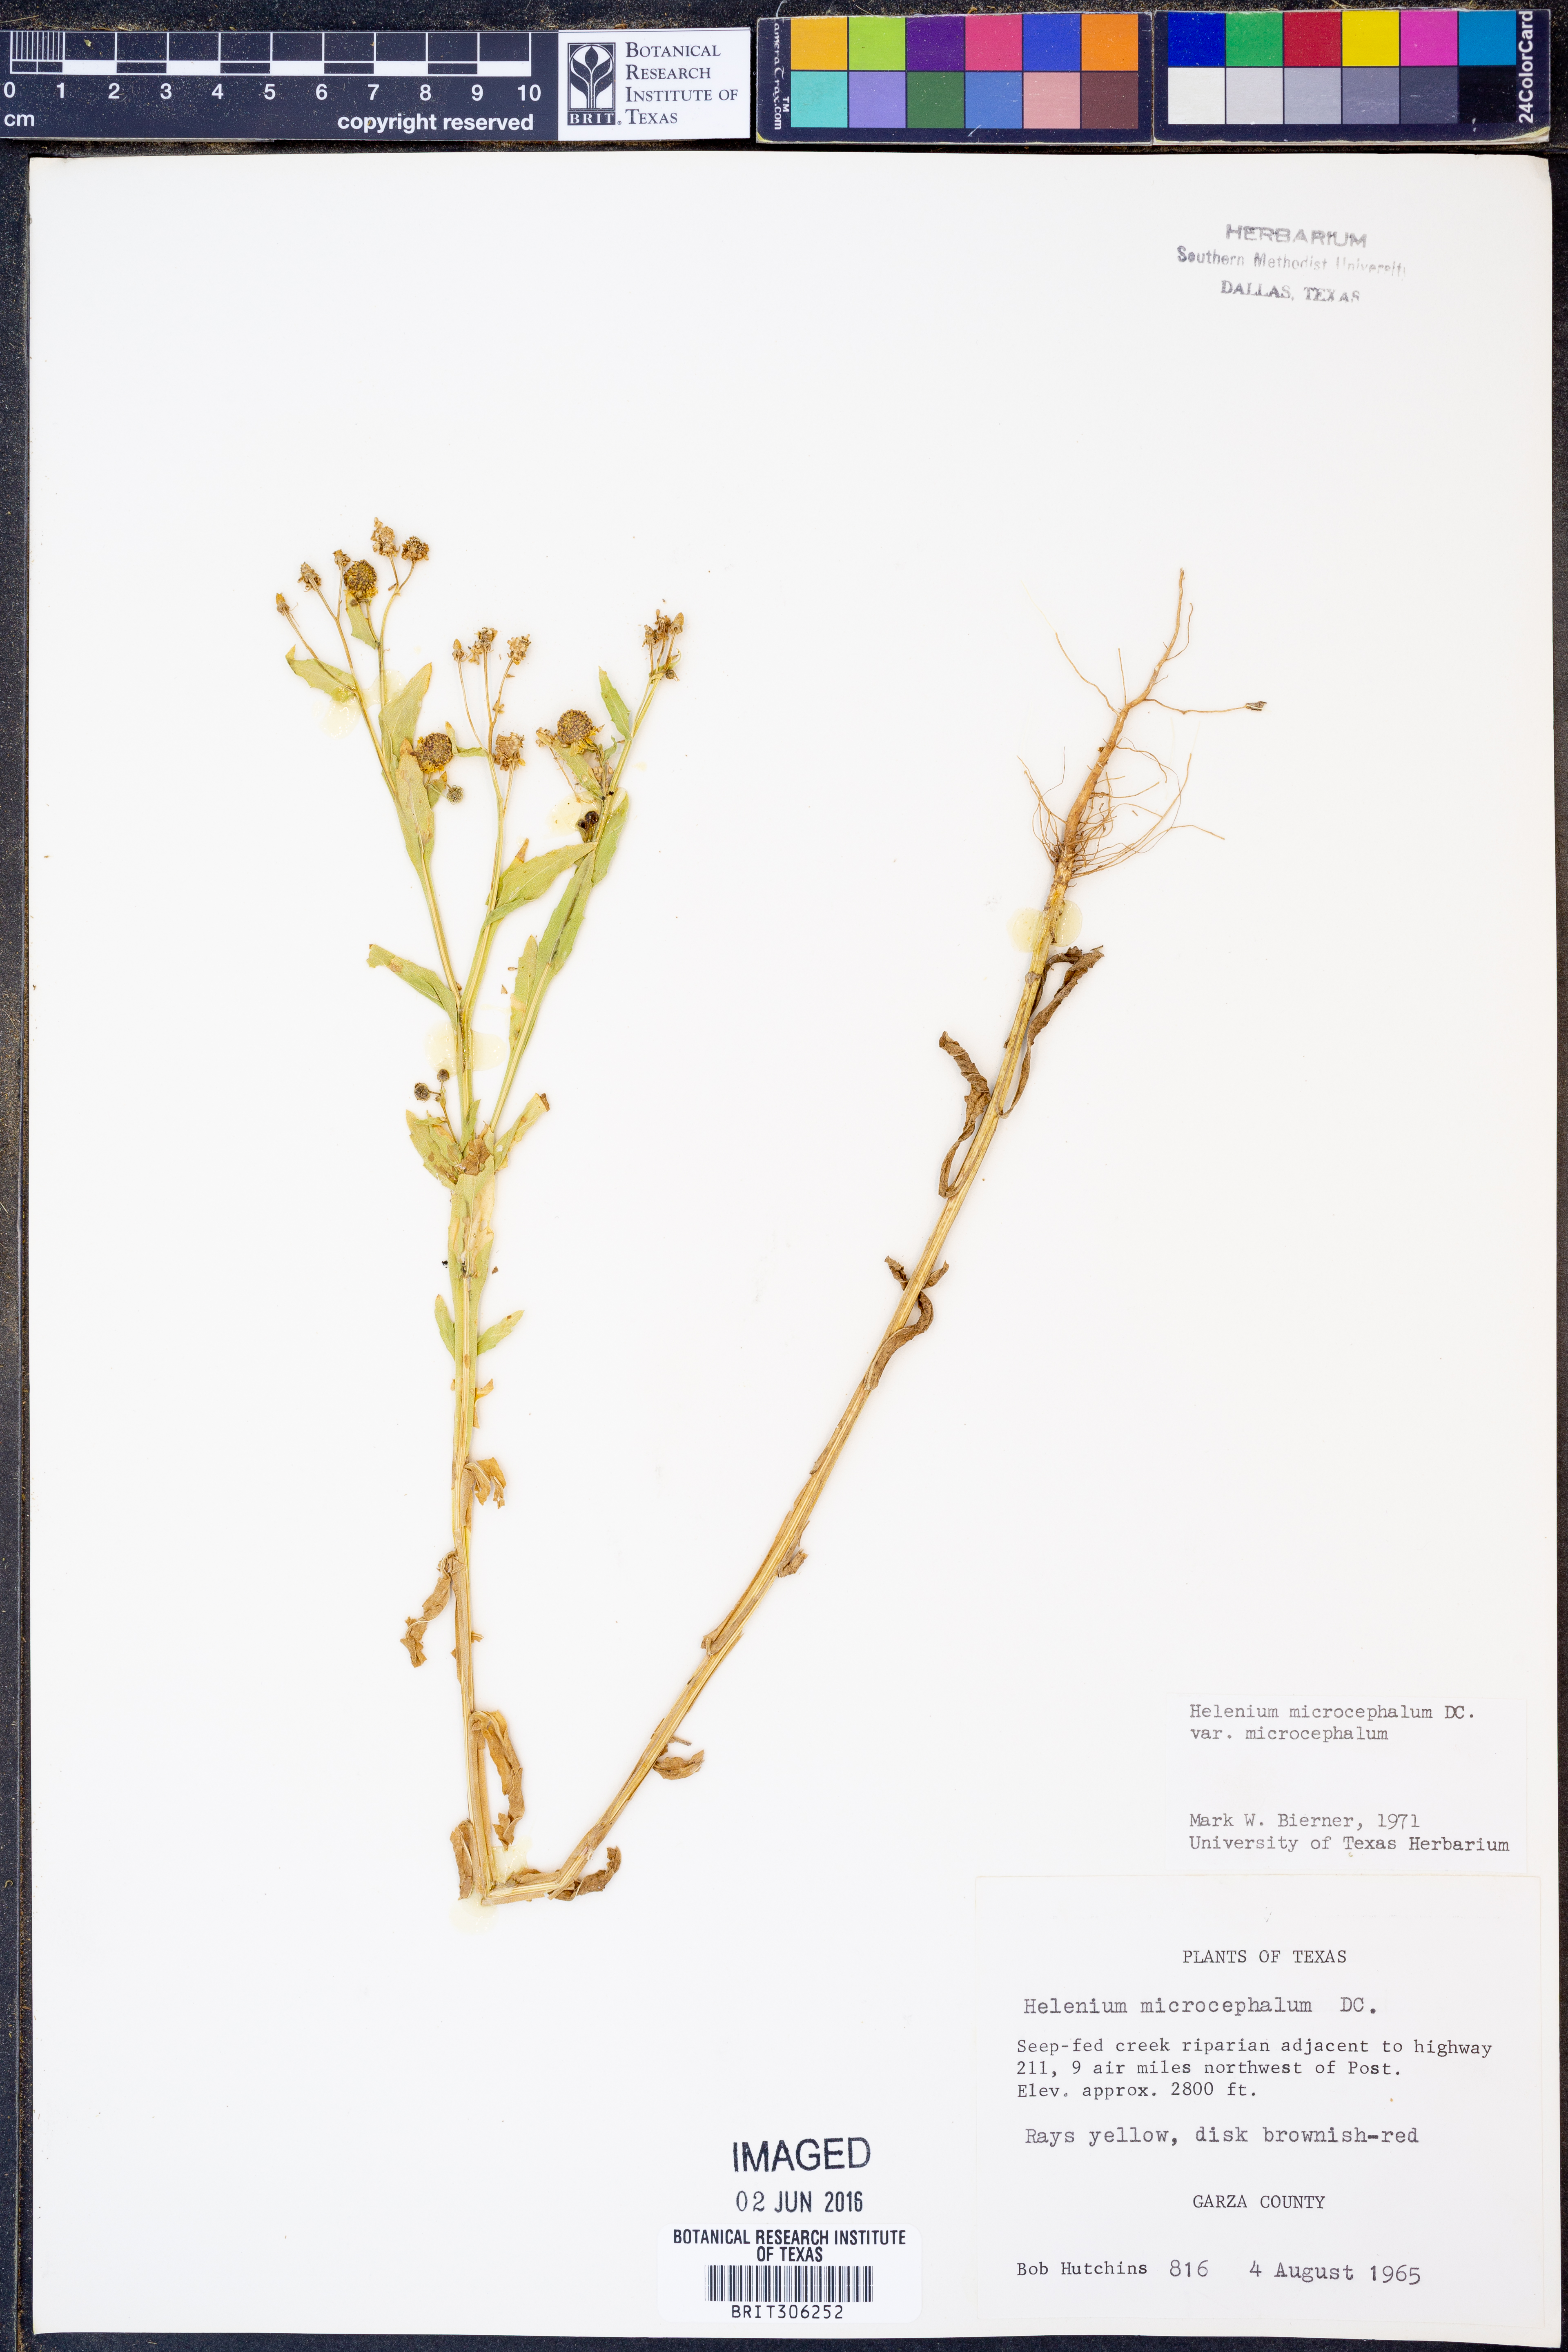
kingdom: Plantae
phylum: Tracheophyta
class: Magnoliopsida
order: Asterales
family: Asteraceae
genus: Helenium
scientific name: Helenium microcephalum
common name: Smallhead sneezeweed
